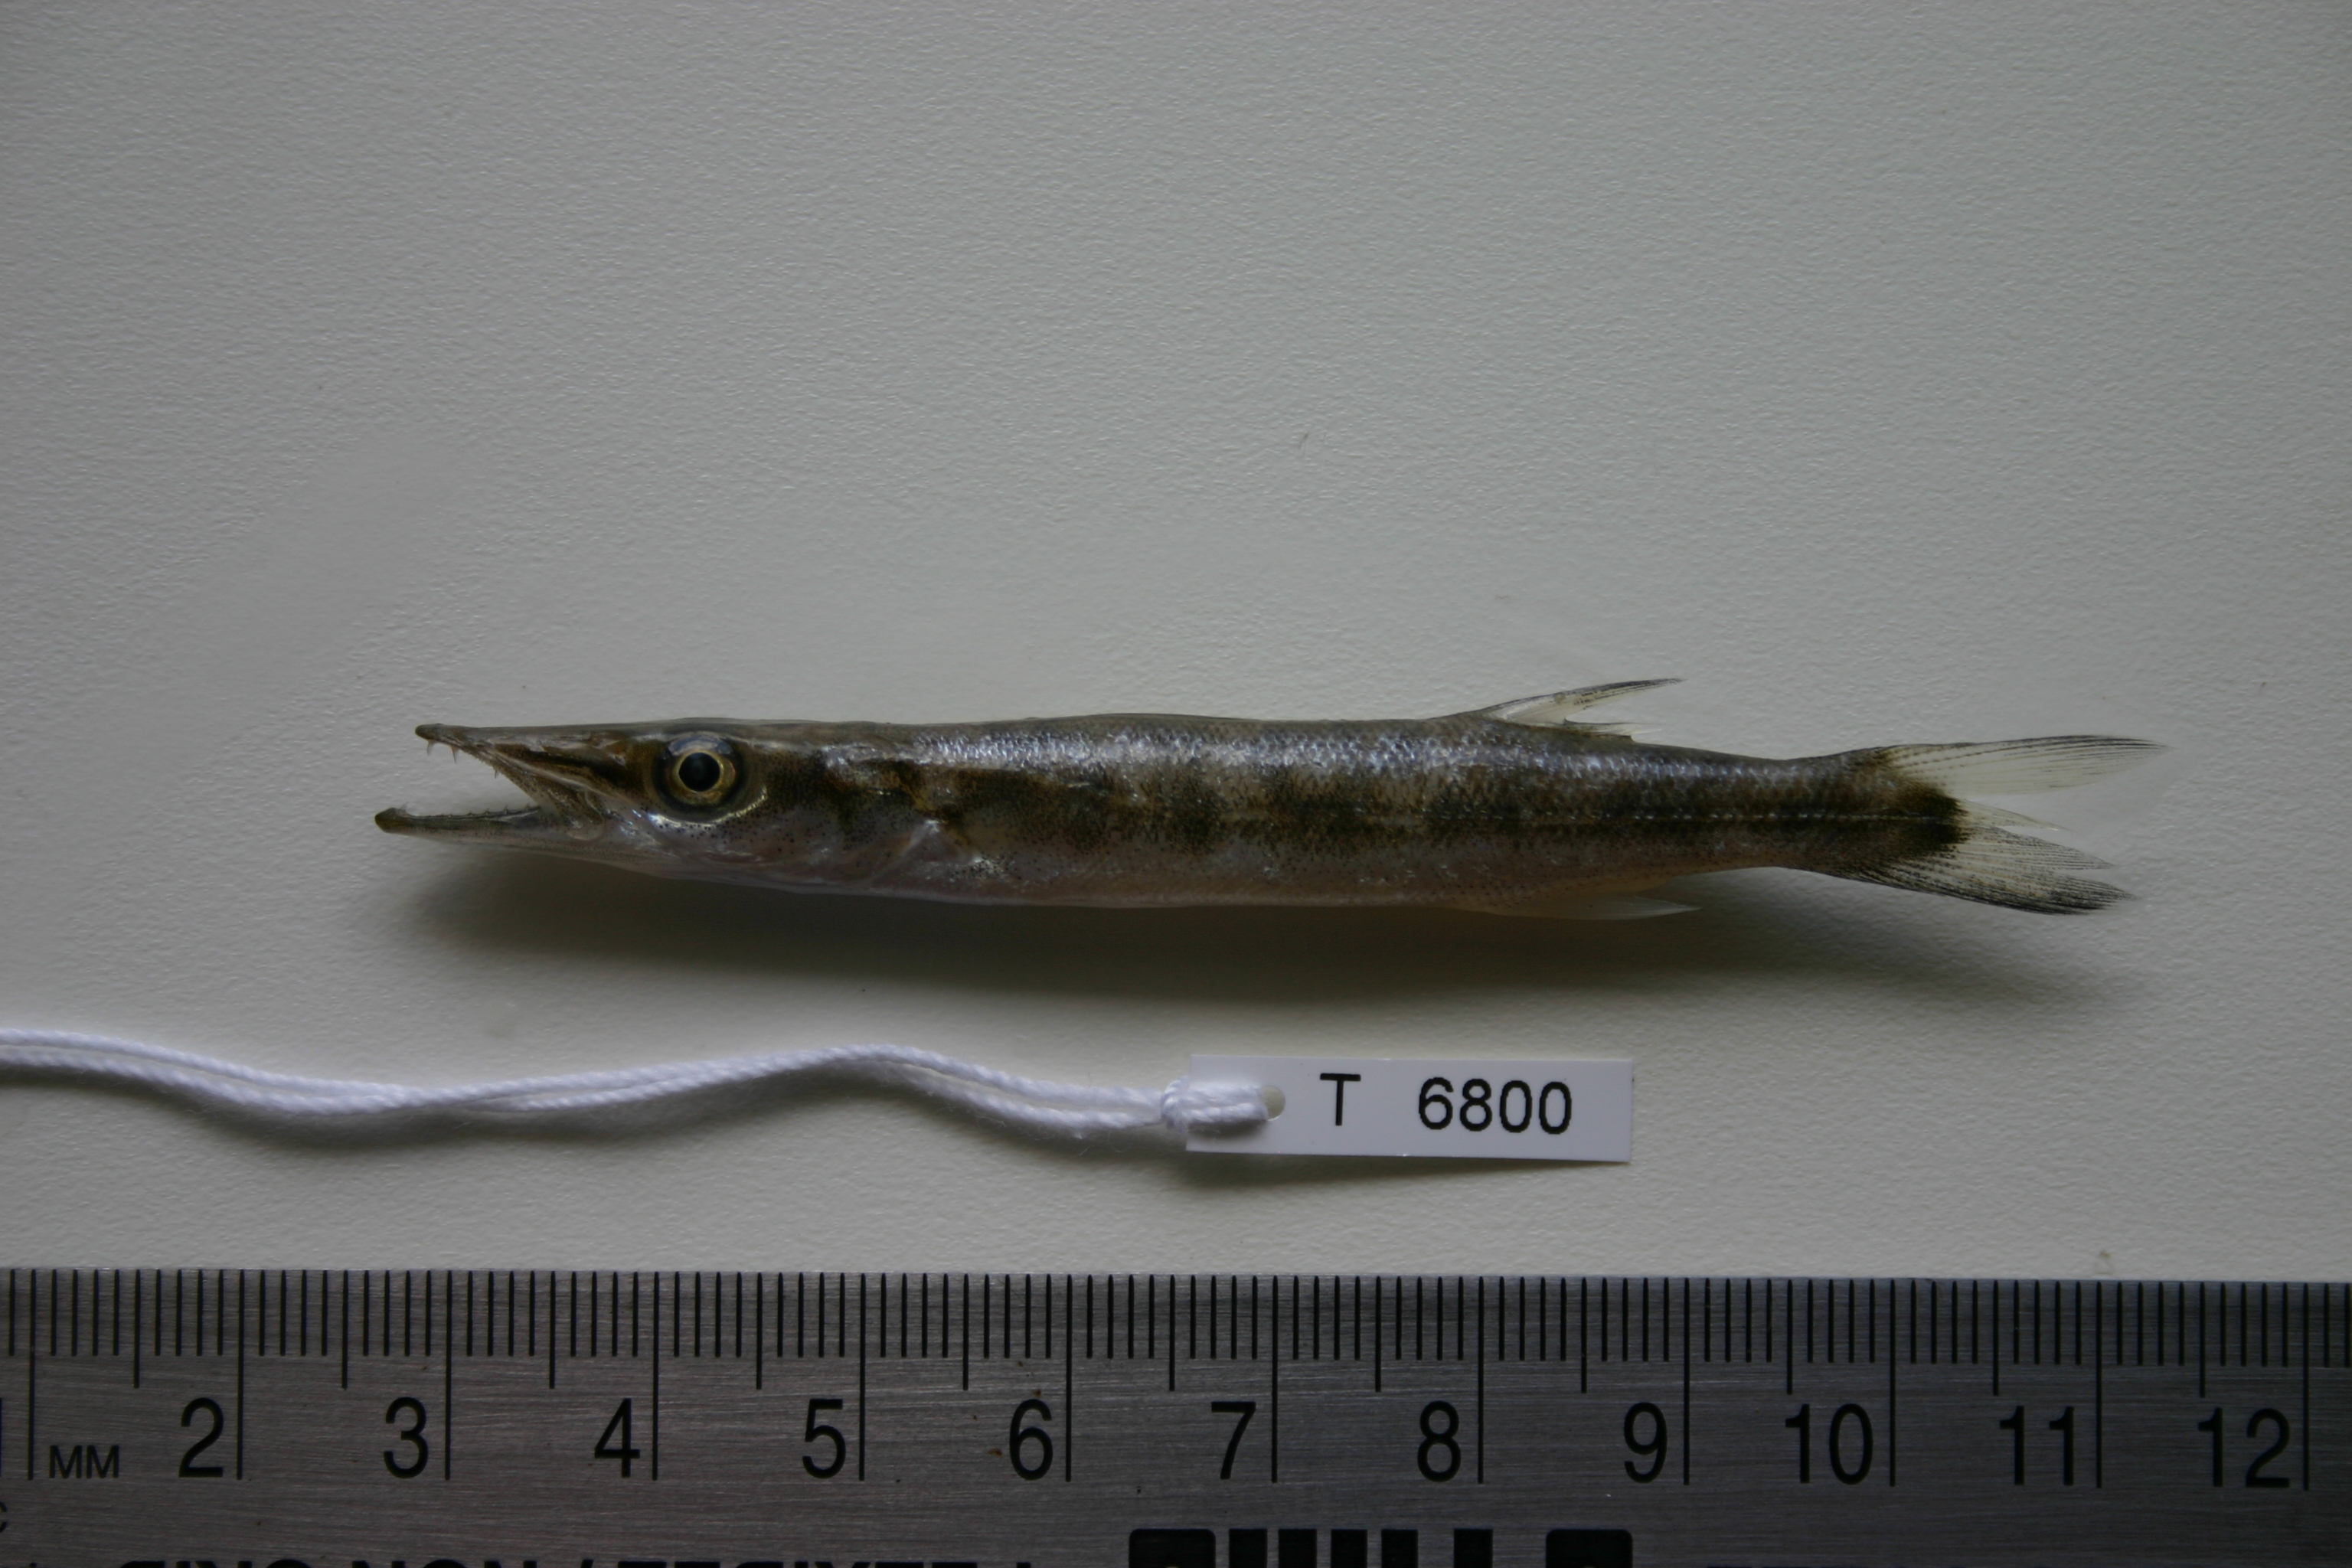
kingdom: Animalia
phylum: Chordata
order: Perciformes
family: Sphyraenidae
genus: Sphyraena
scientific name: Sphyraena barracuda
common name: Great barracuda
